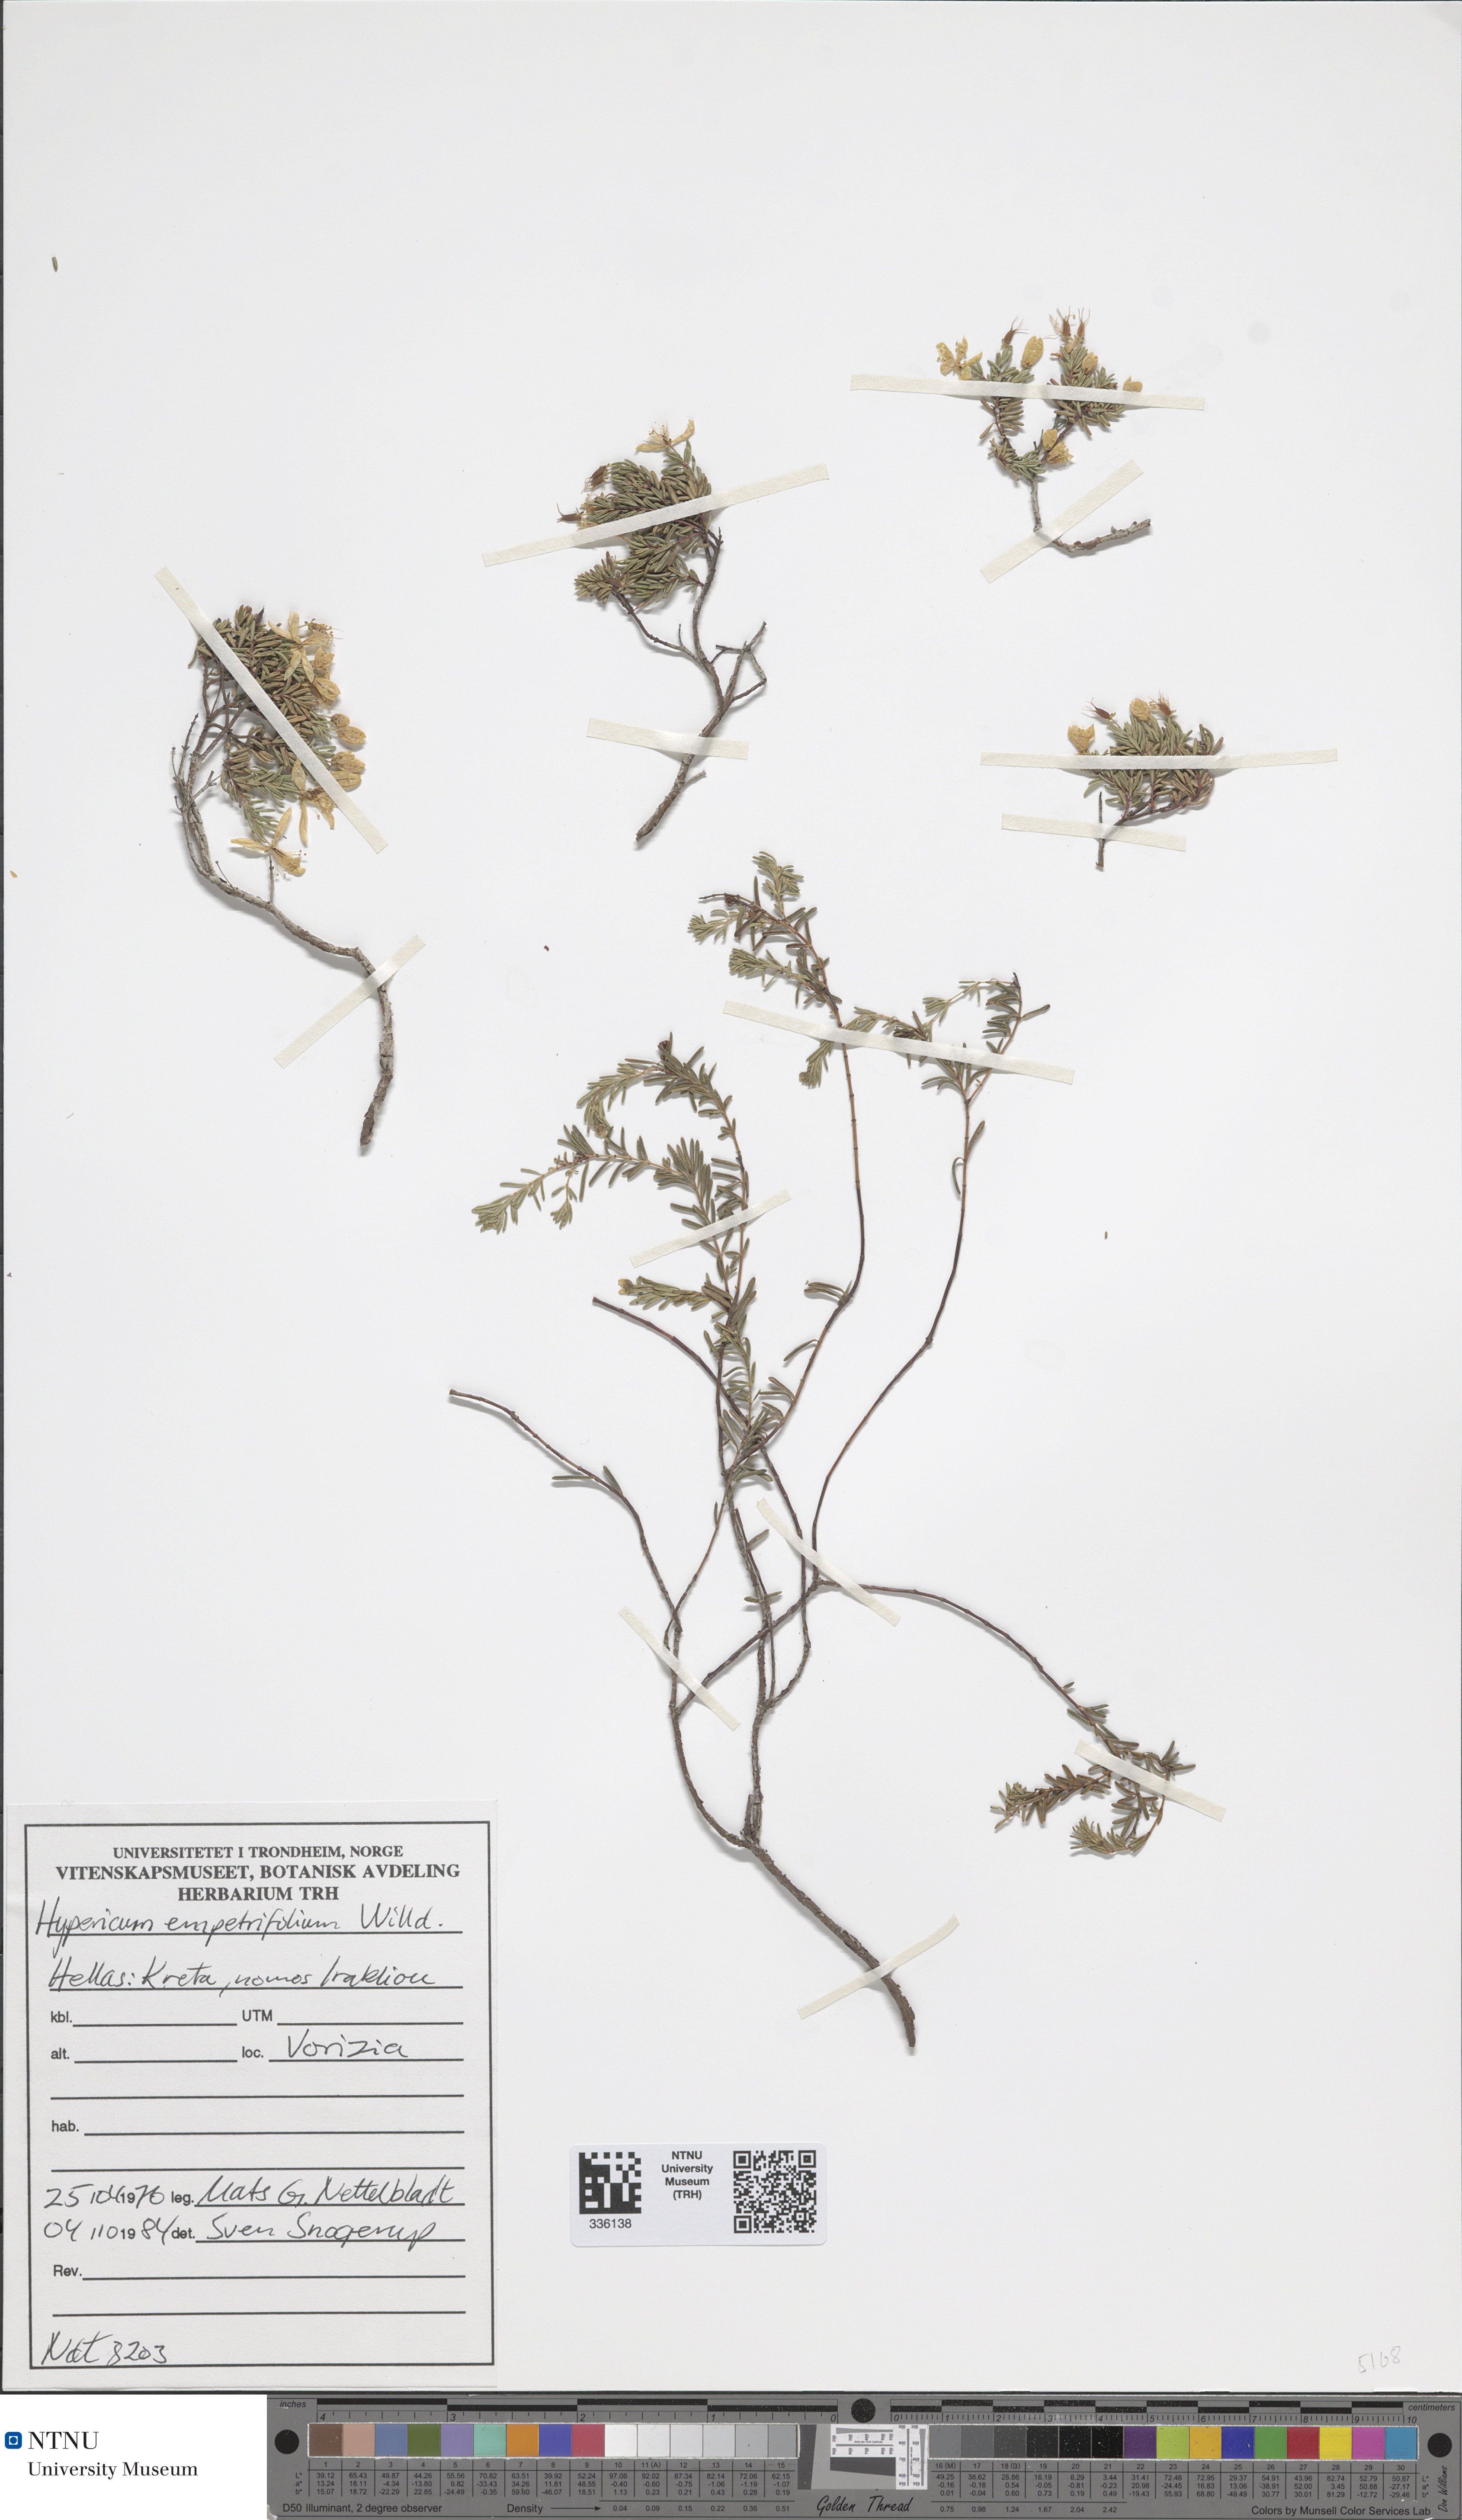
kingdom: Plantae
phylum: Tracheophyta
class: Magnoliopsida
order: Malpighiales
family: Hypericaceae
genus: Hypericum
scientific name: Hypericum empetrifolium
